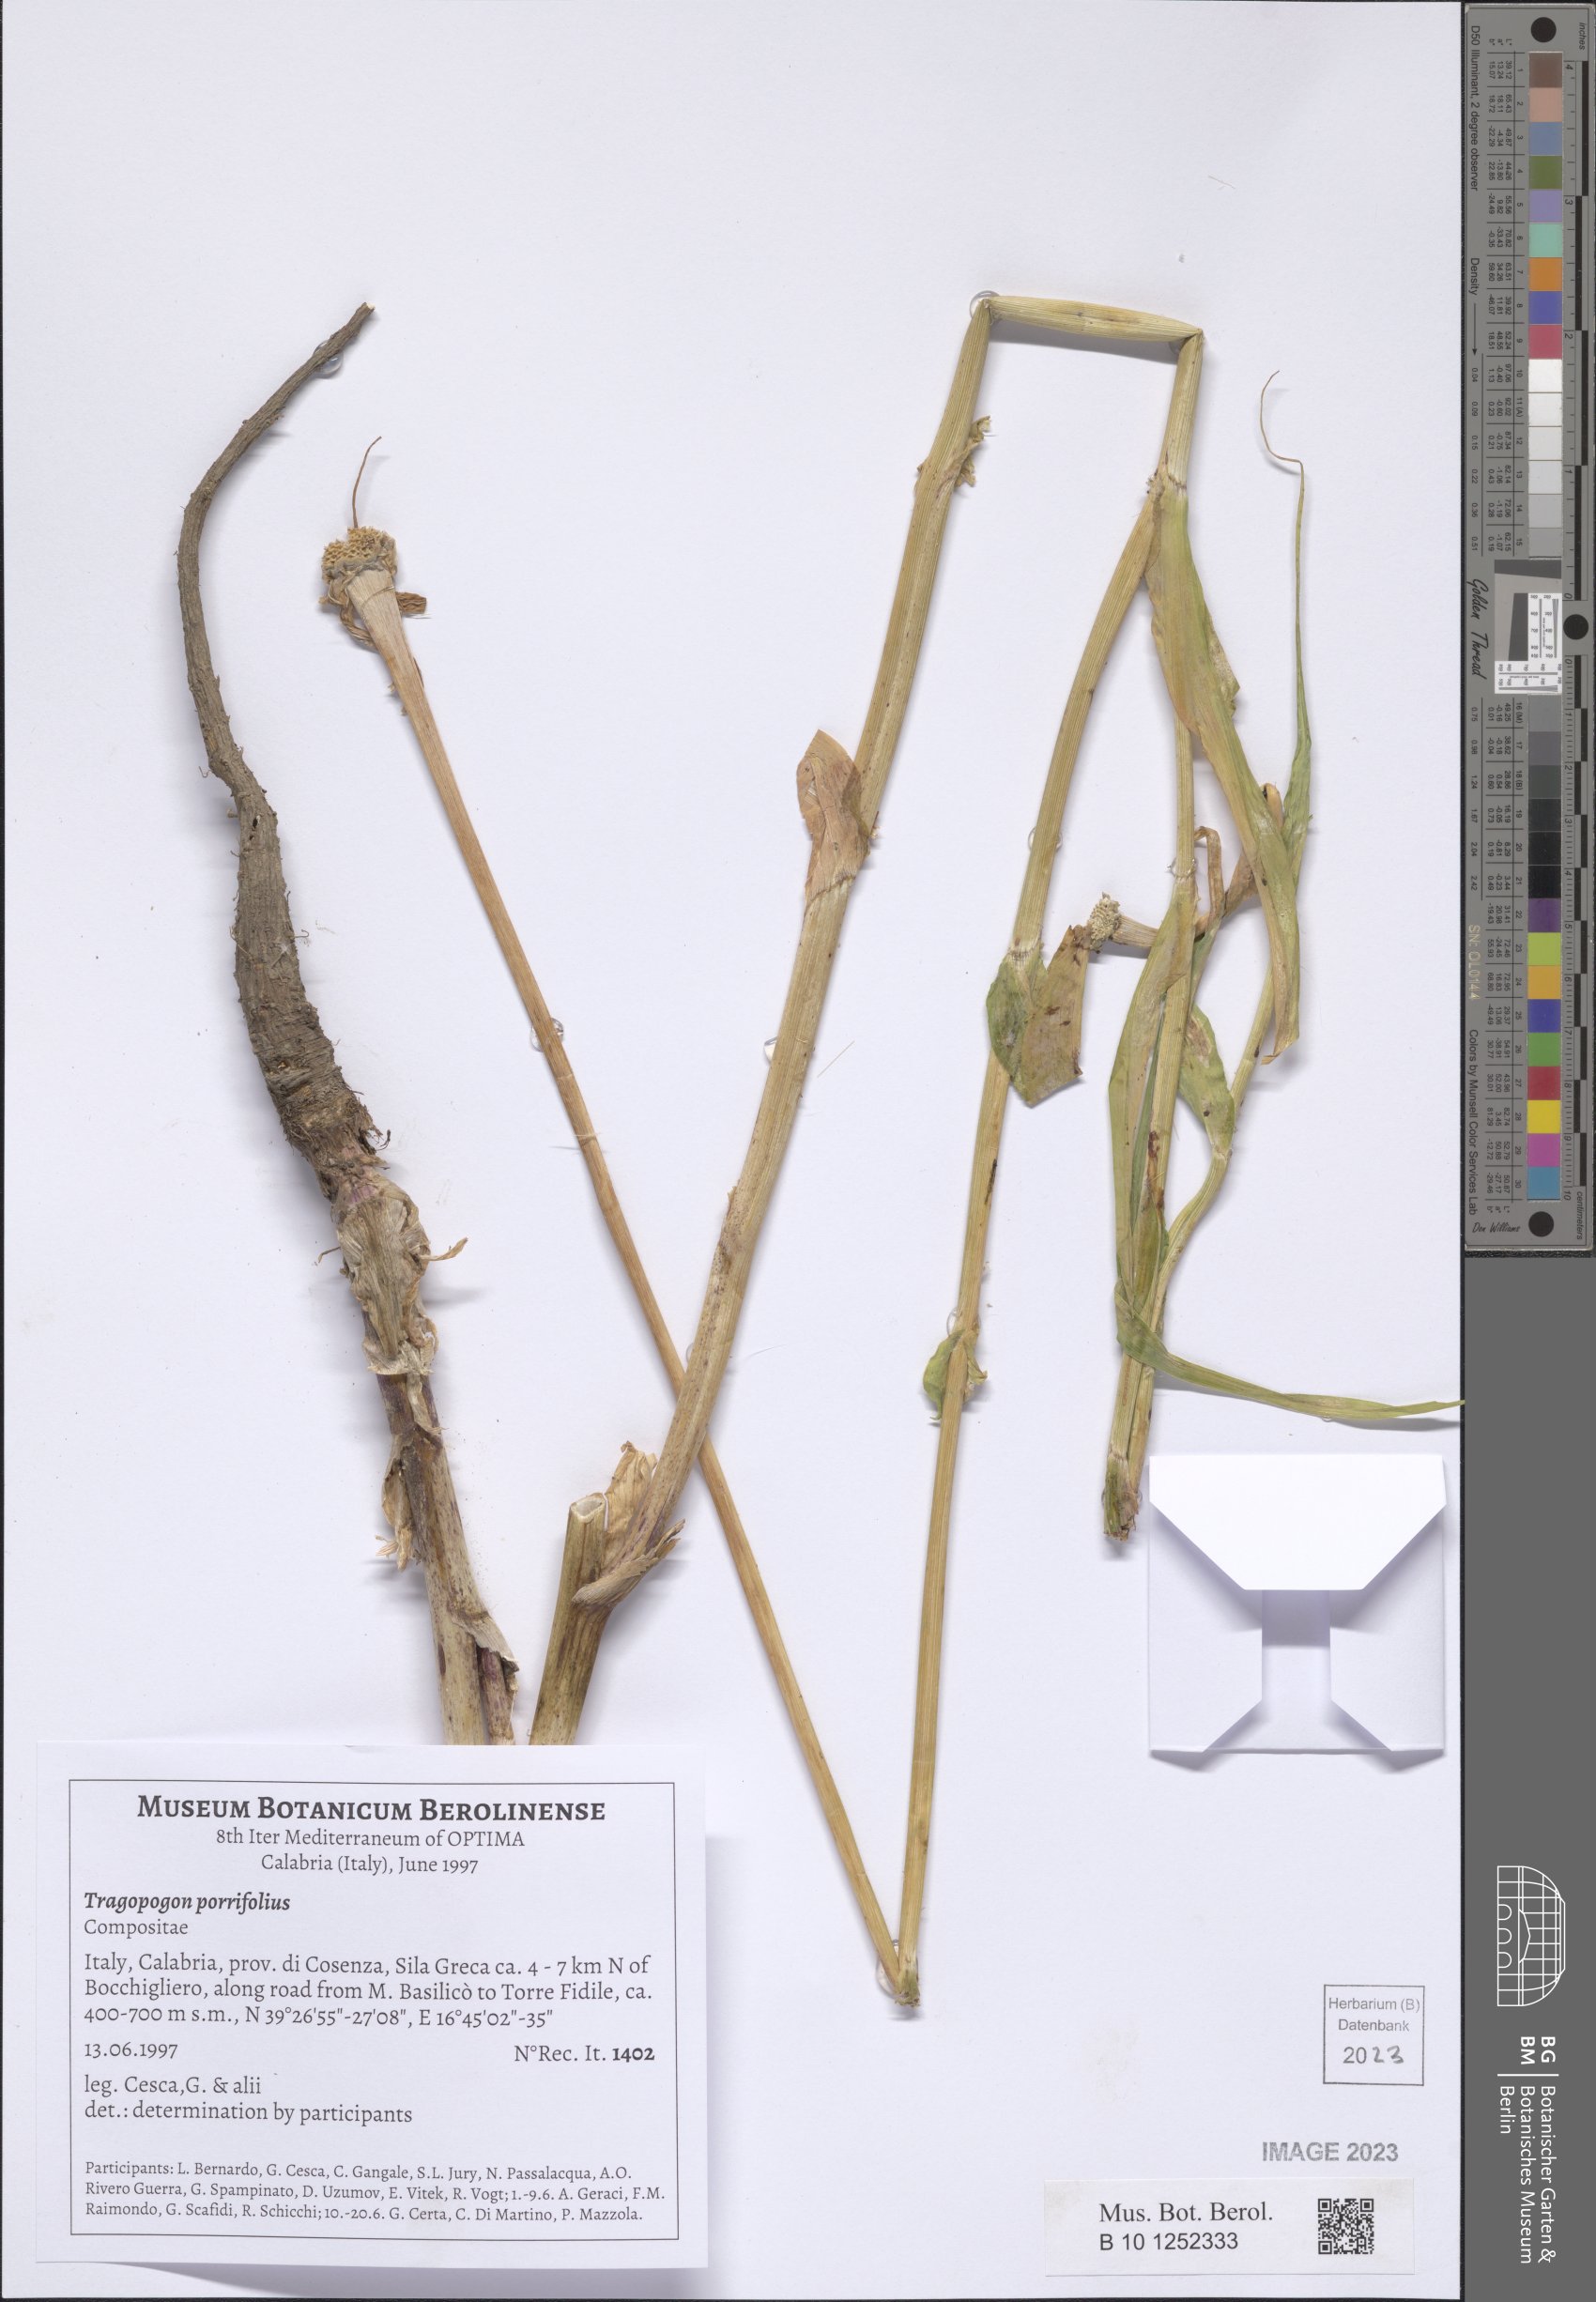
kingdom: Plantae
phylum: Tracheophyta
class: Magnoliopsida
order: Asterales
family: Asteraceae
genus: Tragopogon
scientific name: Tragopogon porrifolius
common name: Salsify
